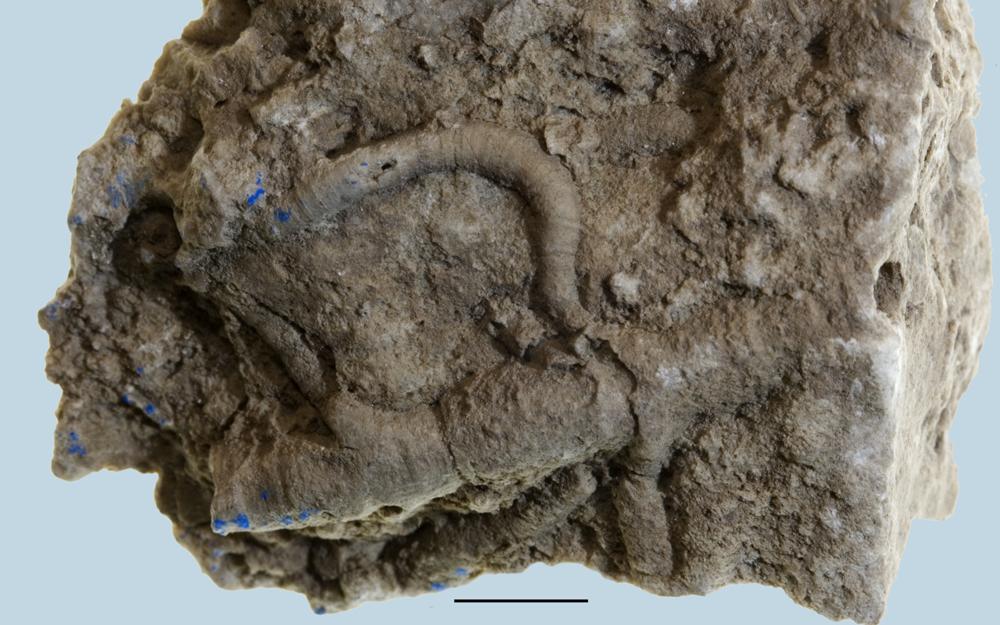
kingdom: Animalia
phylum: Porifera
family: Stictostromatidae
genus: Stictostroma
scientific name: Stictostroma Stromatopora mammillata
